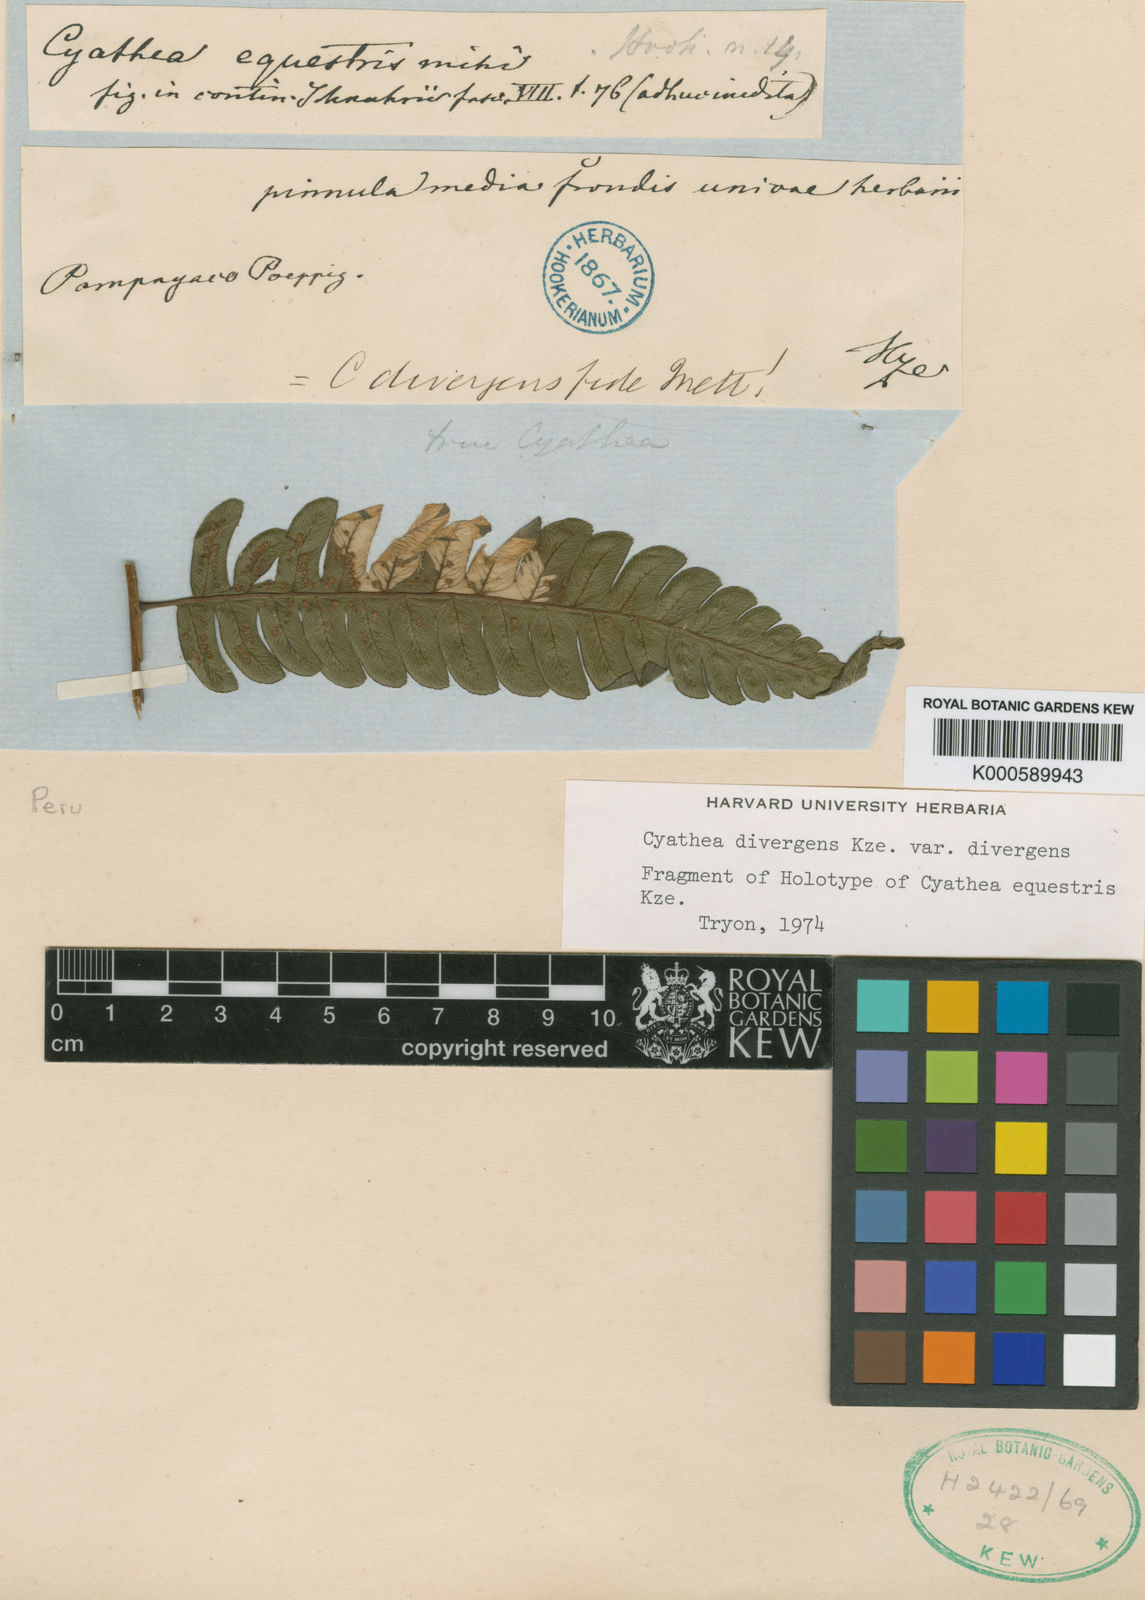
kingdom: Plantae
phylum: Tracheophyta
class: Polypodiopsida
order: Cyatheales
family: Cyatheaceae
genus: Cyathea
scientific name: Cyathea divergens
